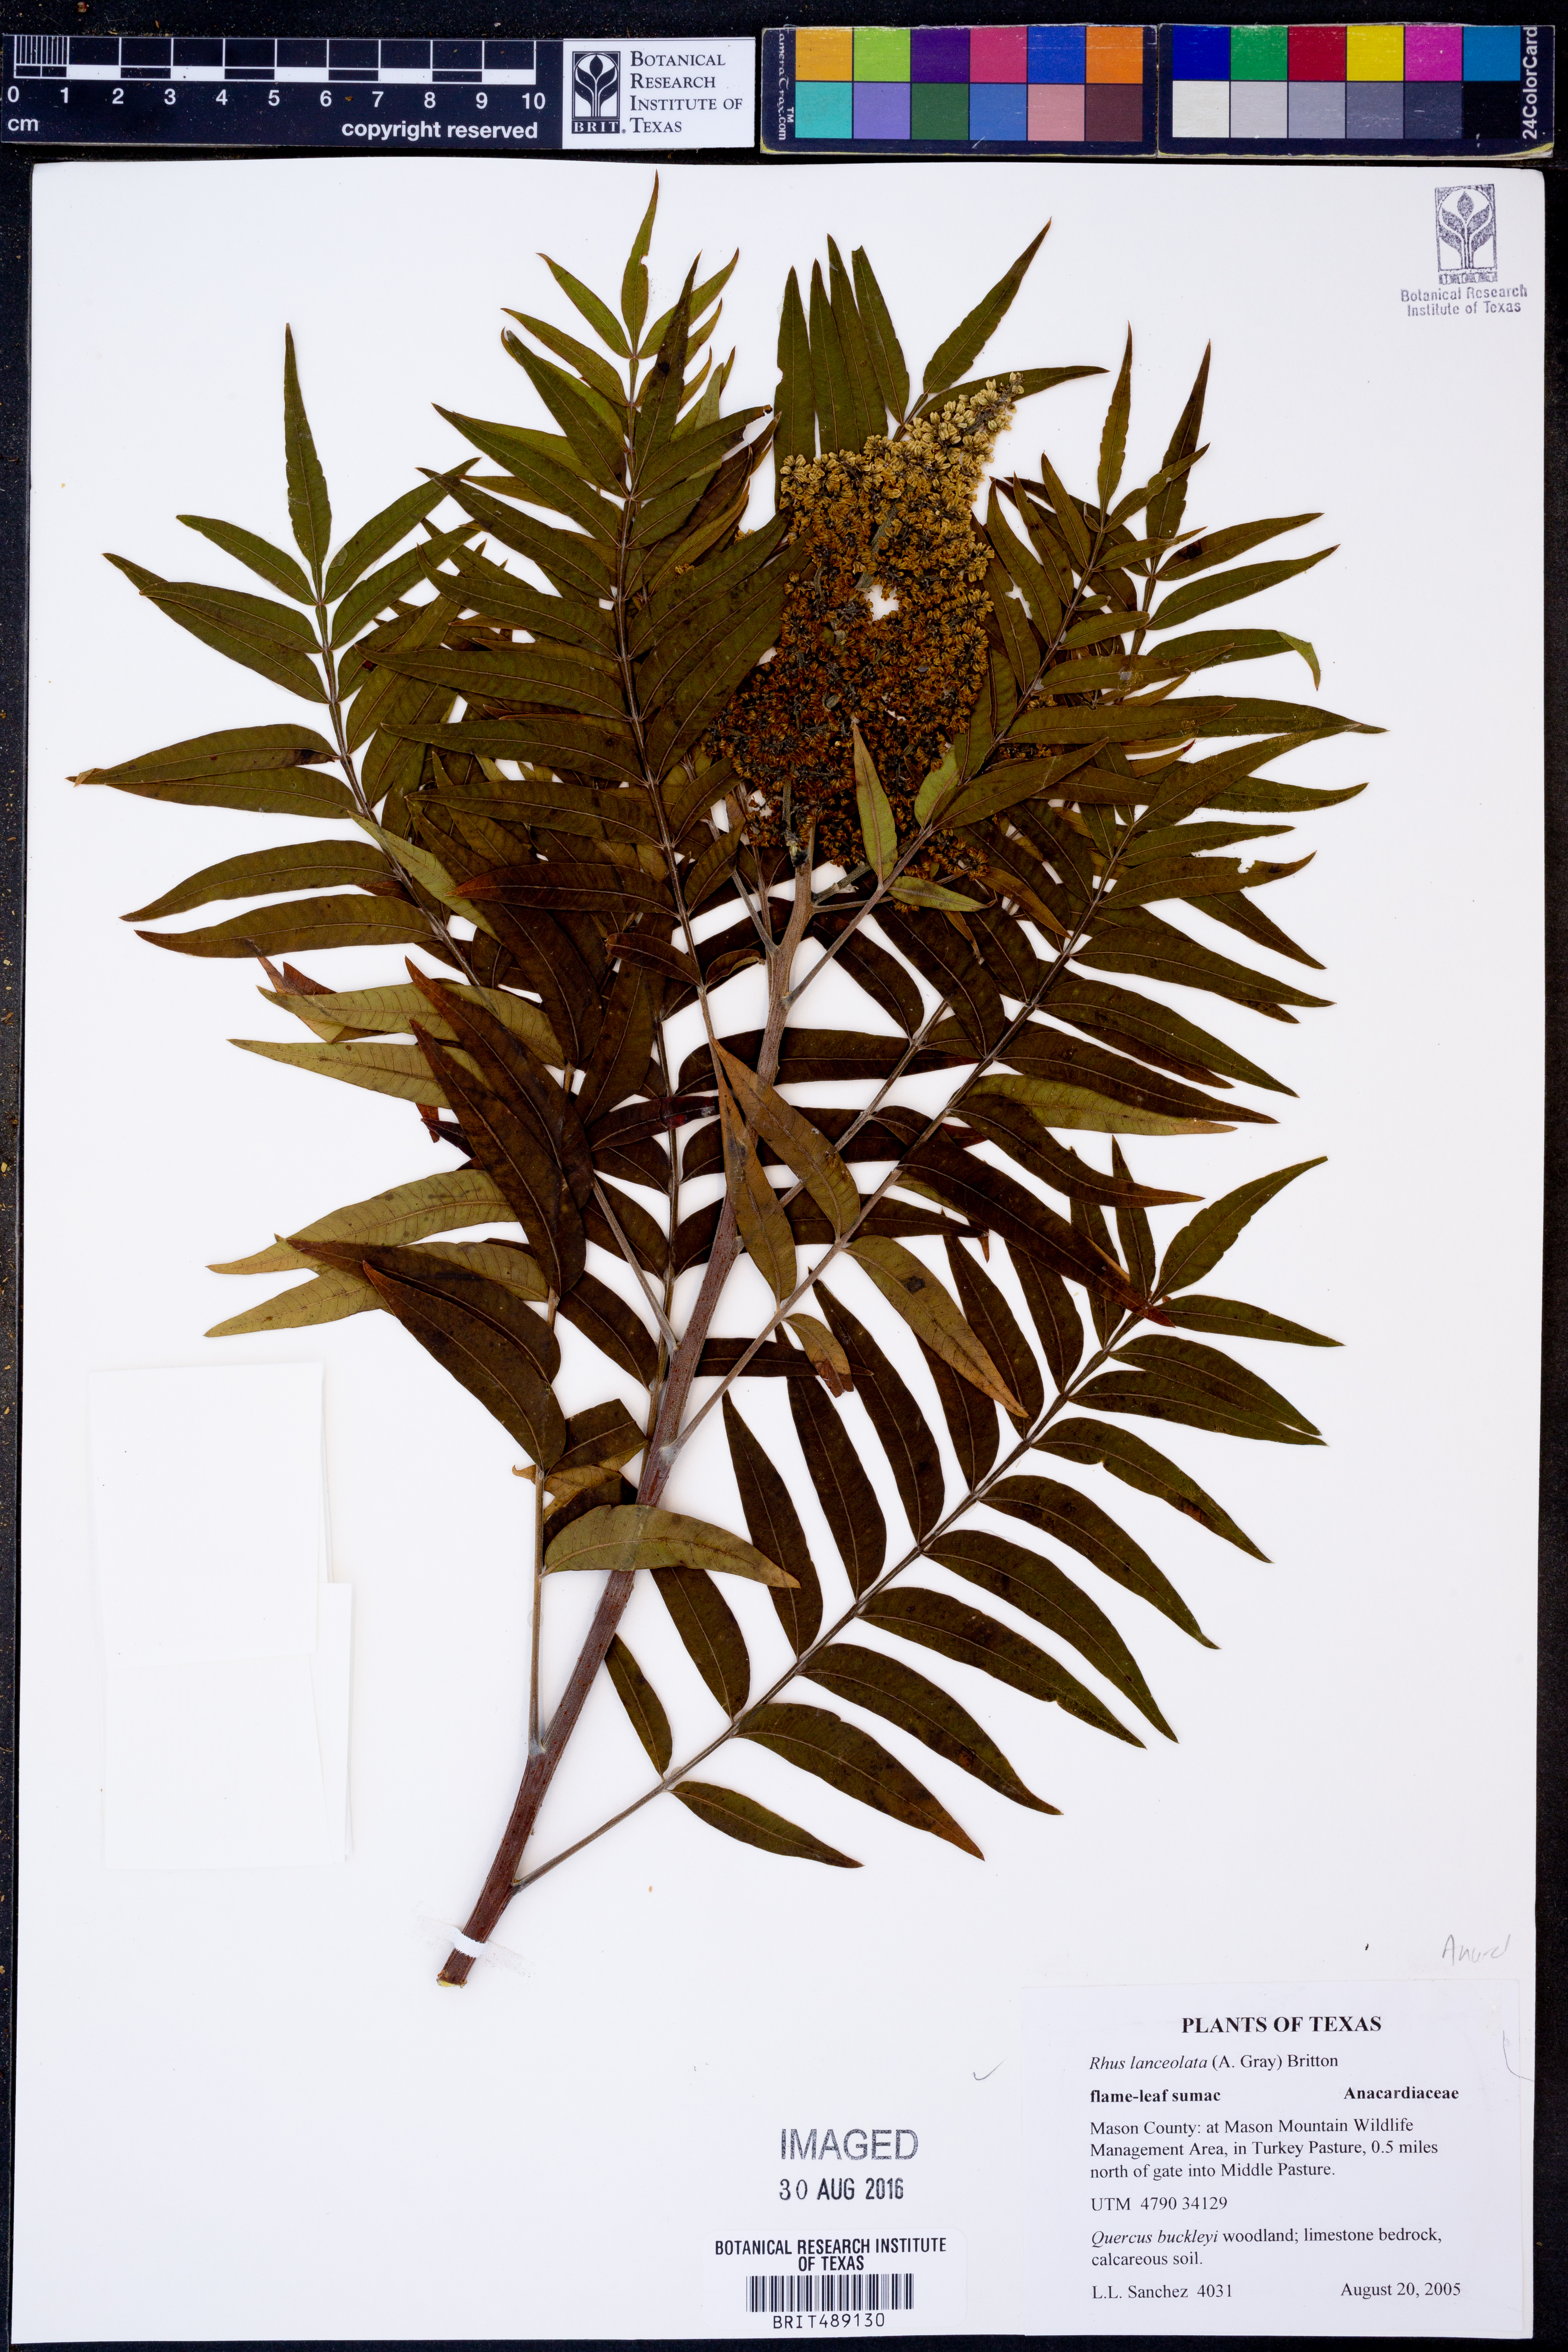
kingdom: Plantae
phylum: Tracheophyta
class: Magnoliopsida
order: Sapindales
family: Anacardiaceae
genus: Rhus
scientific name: Rhus lanceolata
